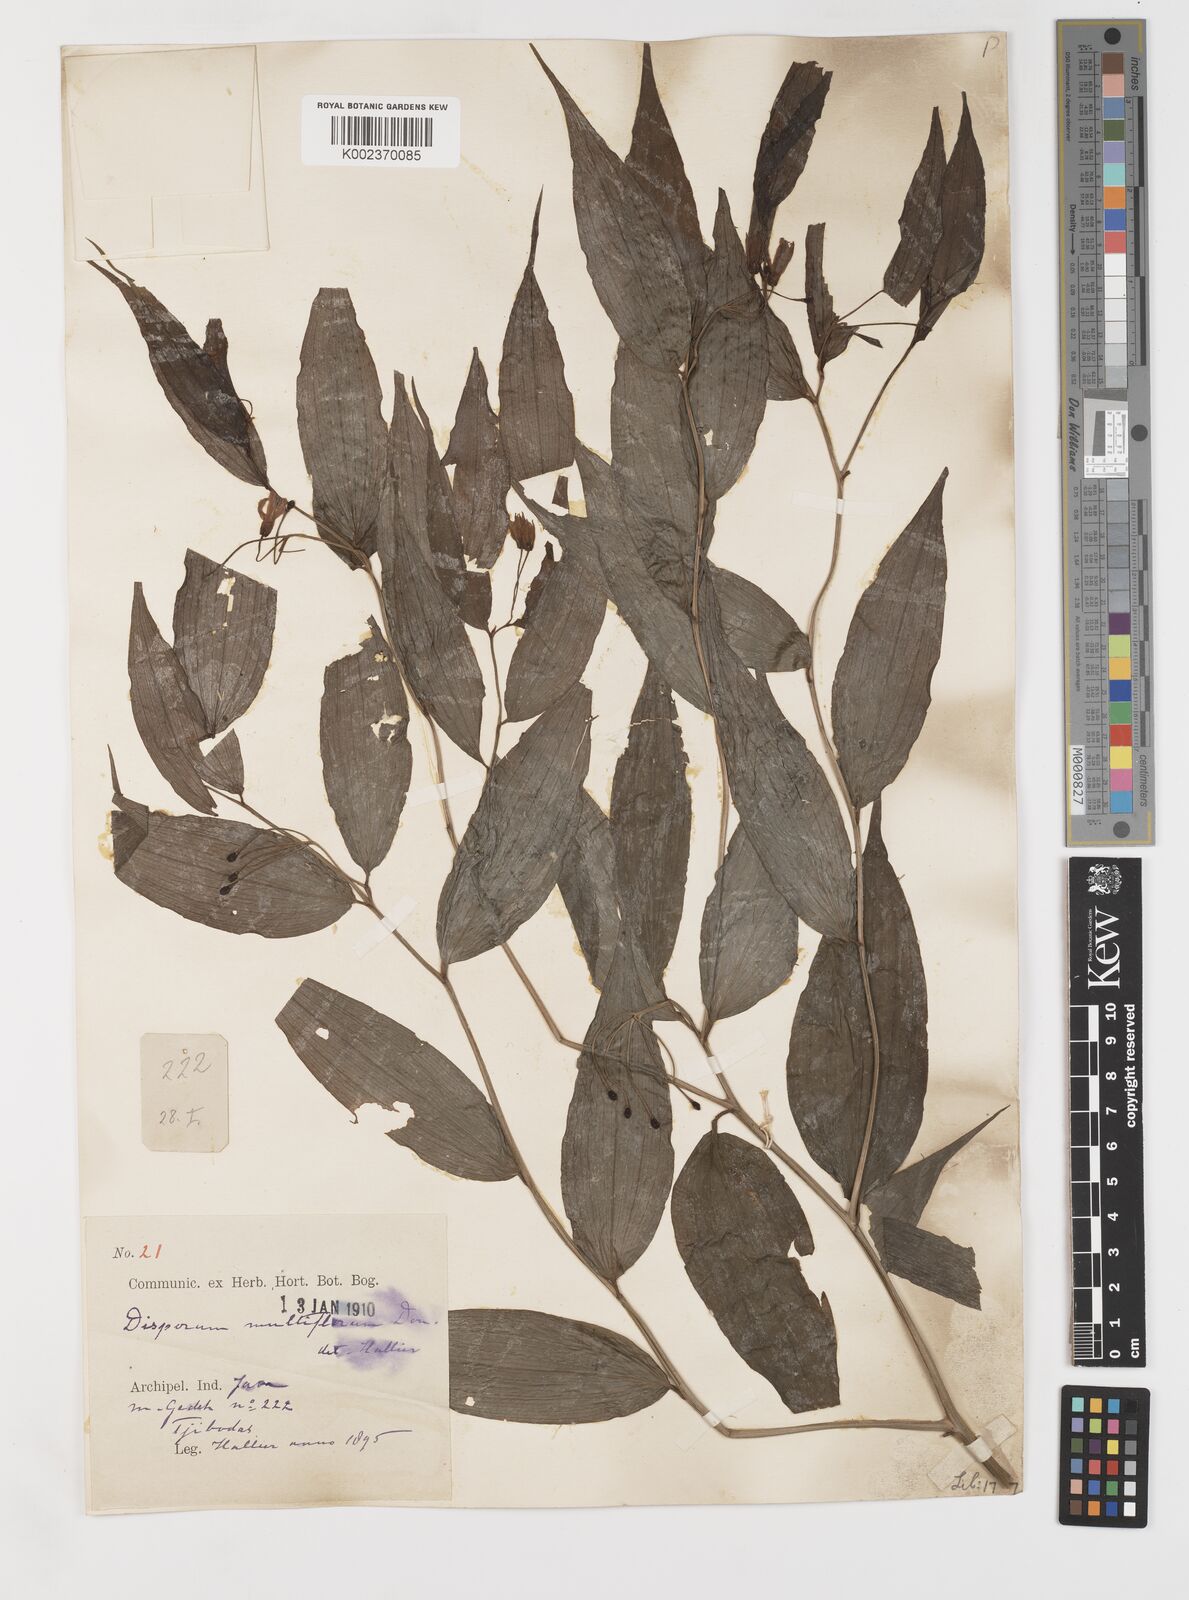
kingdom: Plantae
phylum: Tracheophyta
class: Liliopsida
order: Liliales
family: Colchicaceae
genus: Disporum
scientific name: Disporum cantoniense
